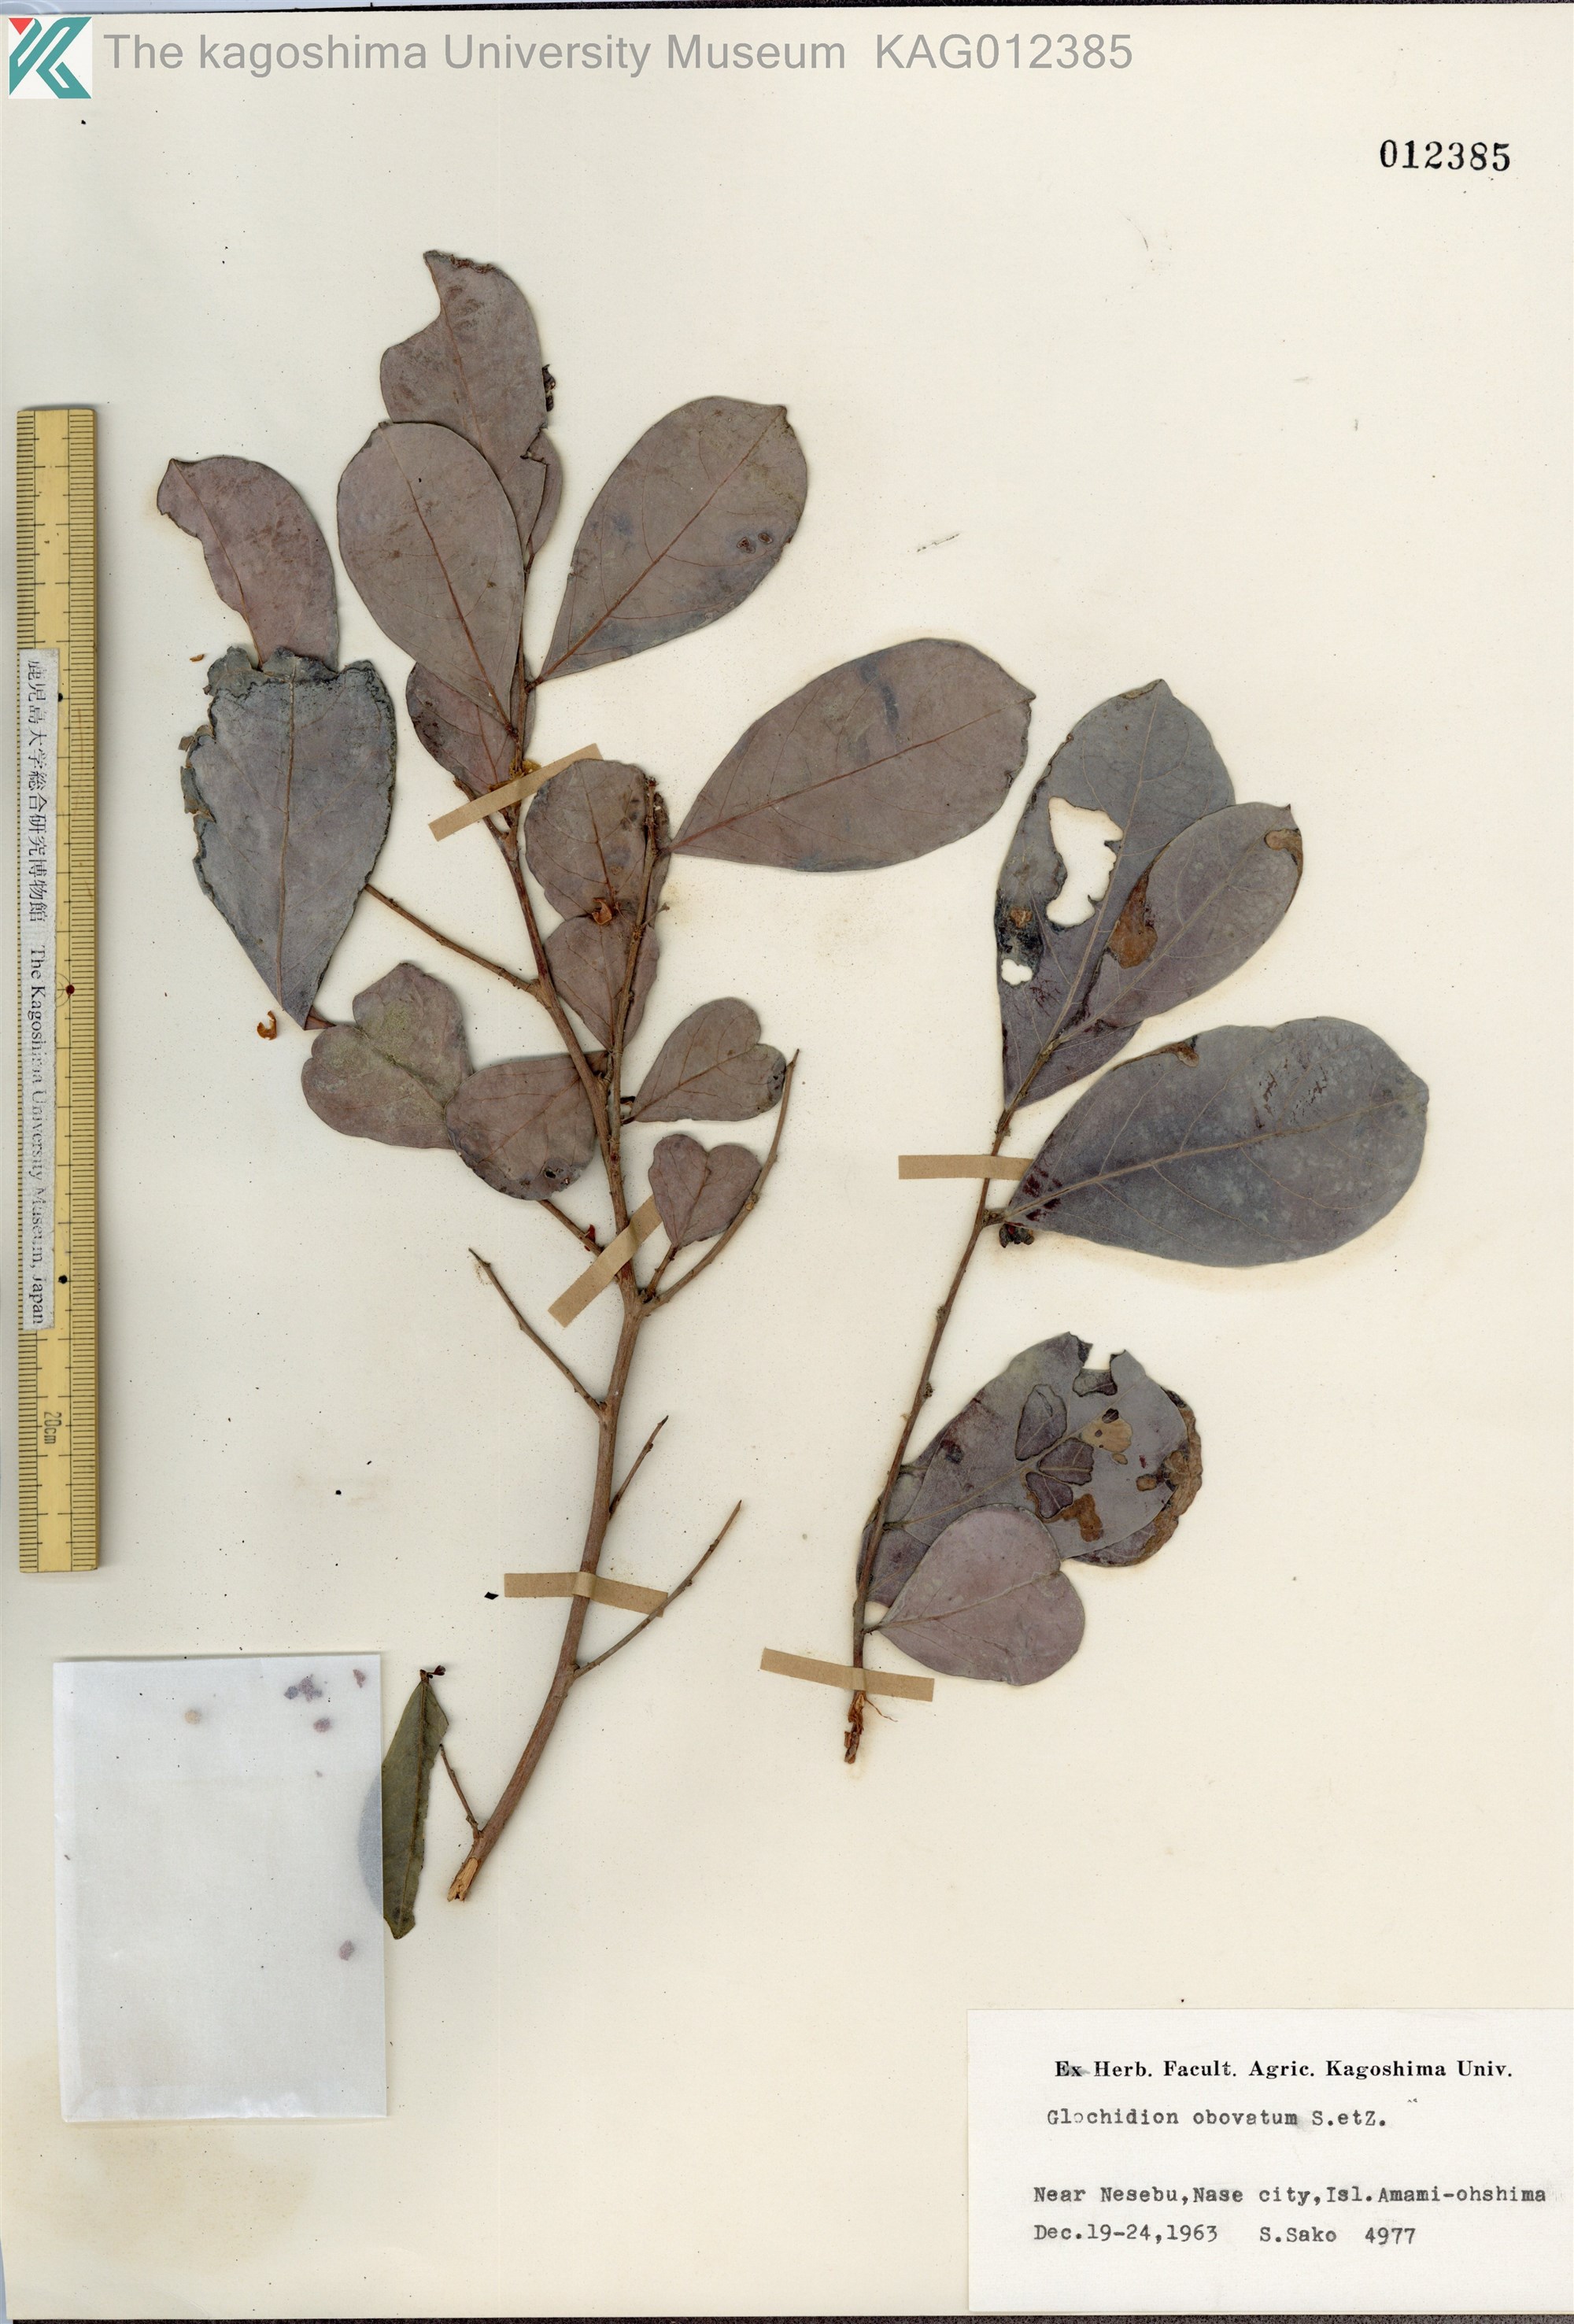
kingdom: Plantae
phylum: Tracheophyta
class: Magnoliopsida
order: Malpighiales
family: Phyllanthaceae
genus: Glochidion
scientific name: Glochidion obovatum
